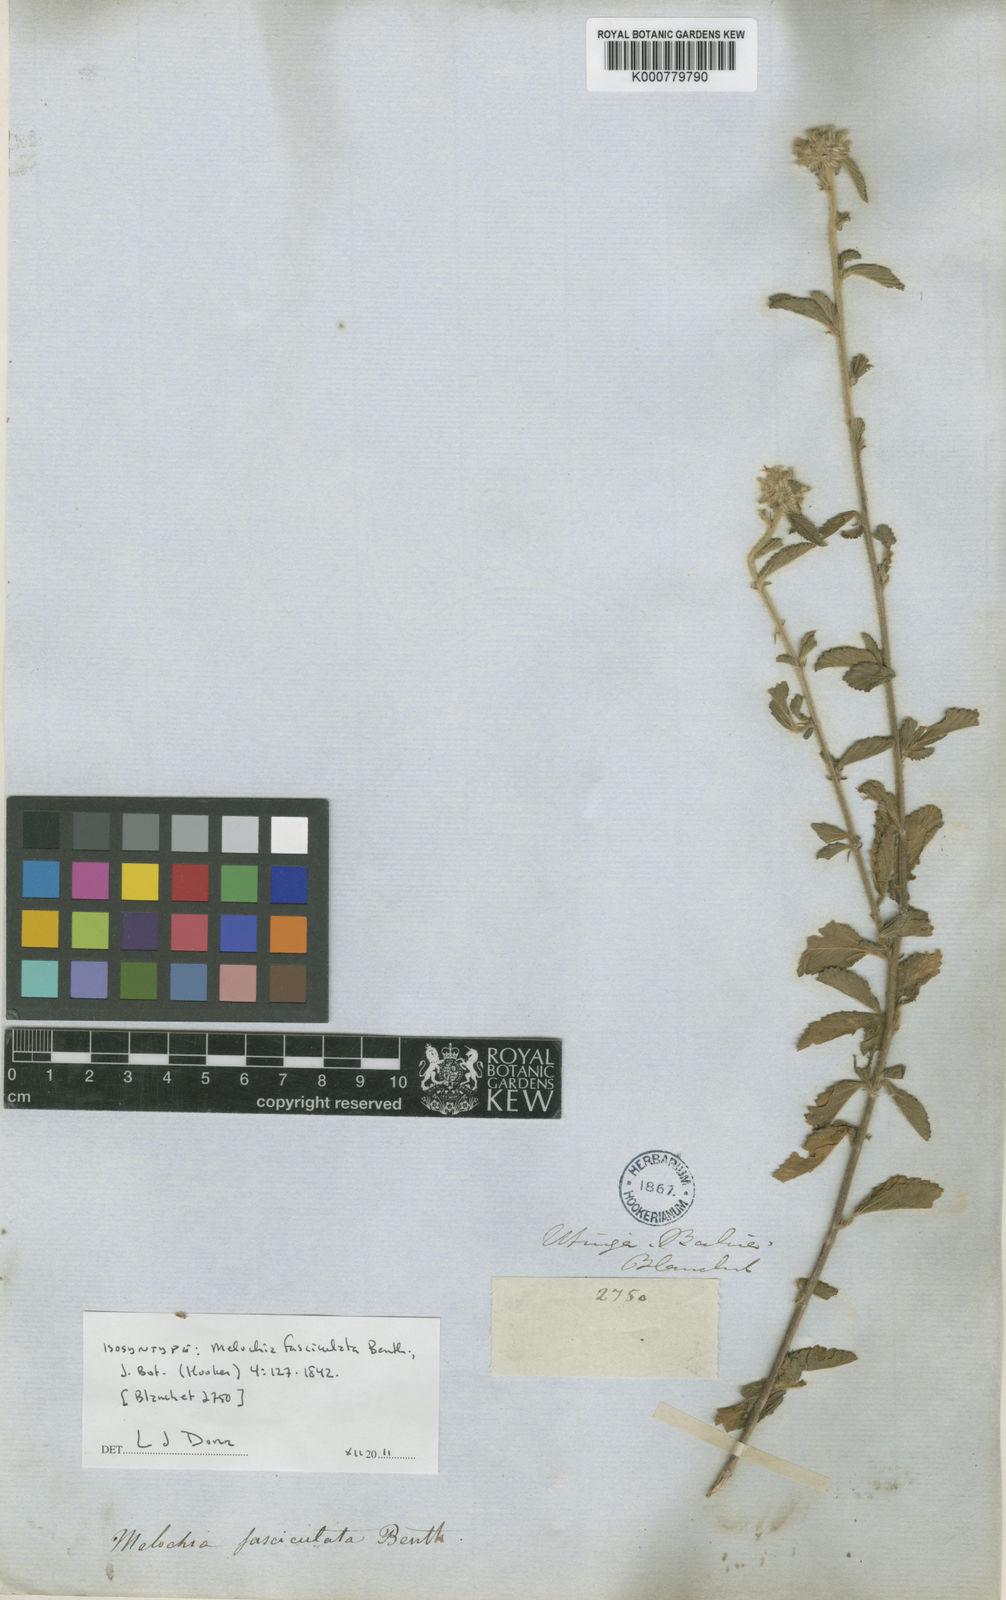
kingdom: Plantae
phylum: Tracheophyta
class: Magnoliopsida
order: Malvales
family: Malvaceae
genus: Melochia
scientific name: Melochia parvifolia
